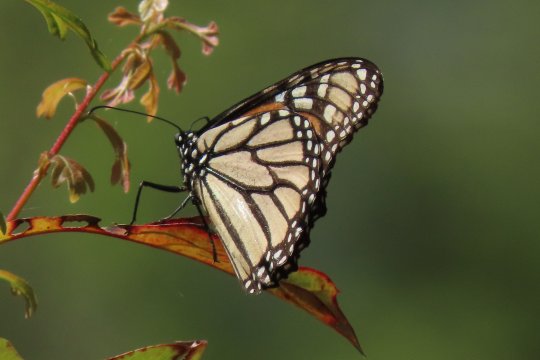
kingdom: Animalia
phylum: Arthropoda
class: Insecta
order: Lepidoptera
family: Nymphalidae
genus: Danaus
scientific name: Danaus plexippus
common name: Monarch
